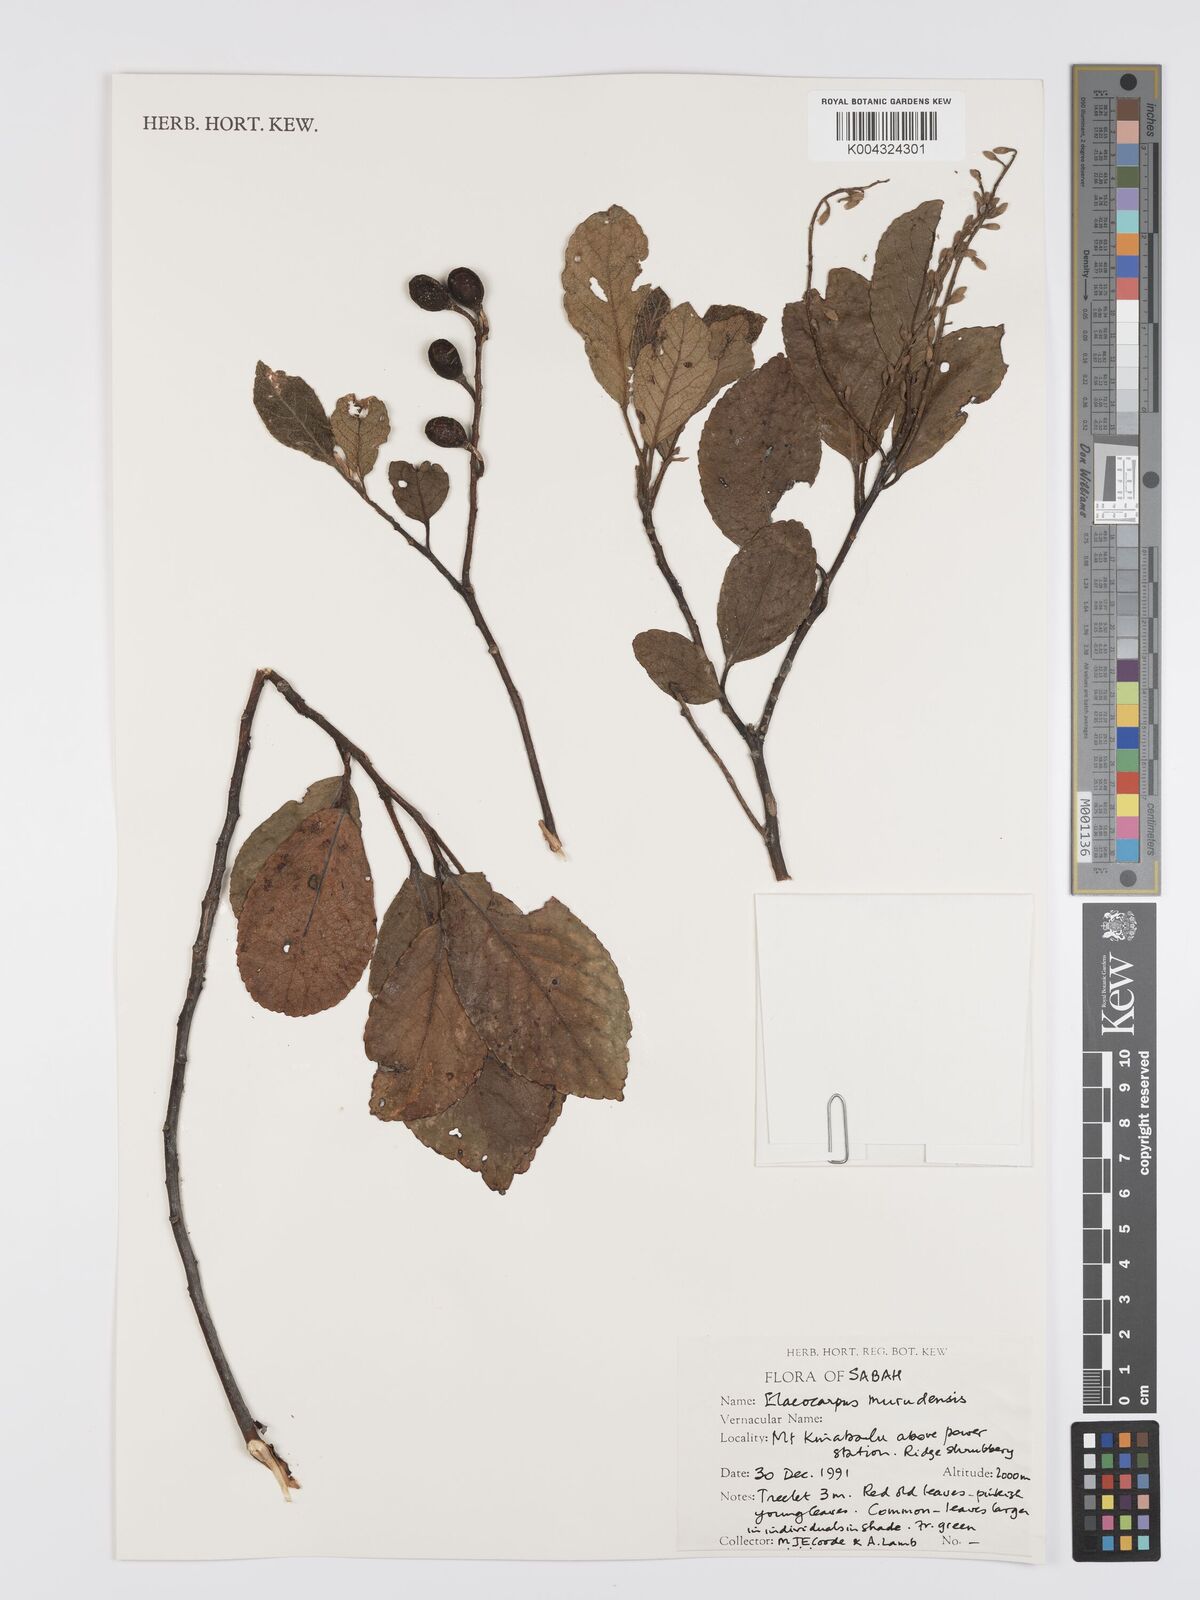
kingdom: Plantae
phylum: Tracheophyta
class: Magnoliopsida
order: Oxalidales
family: Elaeocarpaceae
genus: Elaeocarpus
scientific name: Elaeocarpus murudensis
